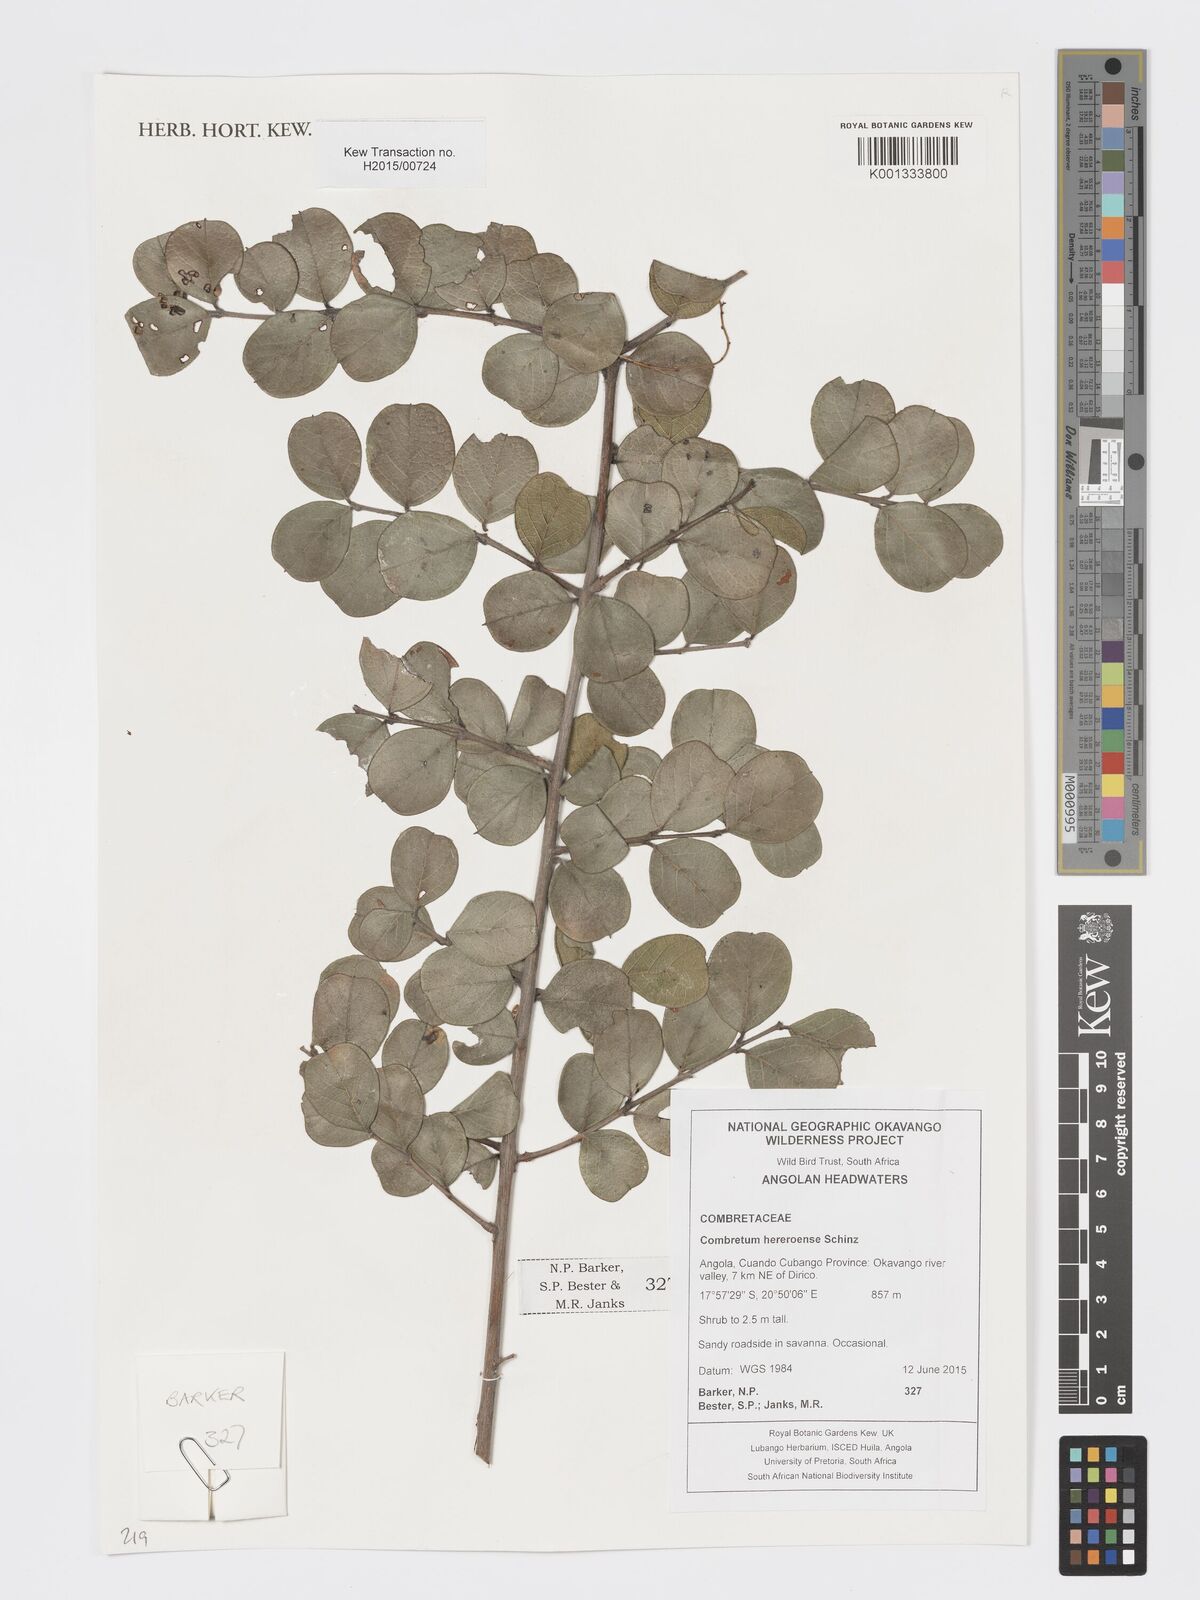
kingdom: Plantae
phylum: Tracheophyta
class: Magnoliopsida
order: Myrtales
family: Combretaceae
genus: Combretum
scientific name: Combretum hereroense
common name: Russet bushwillow
